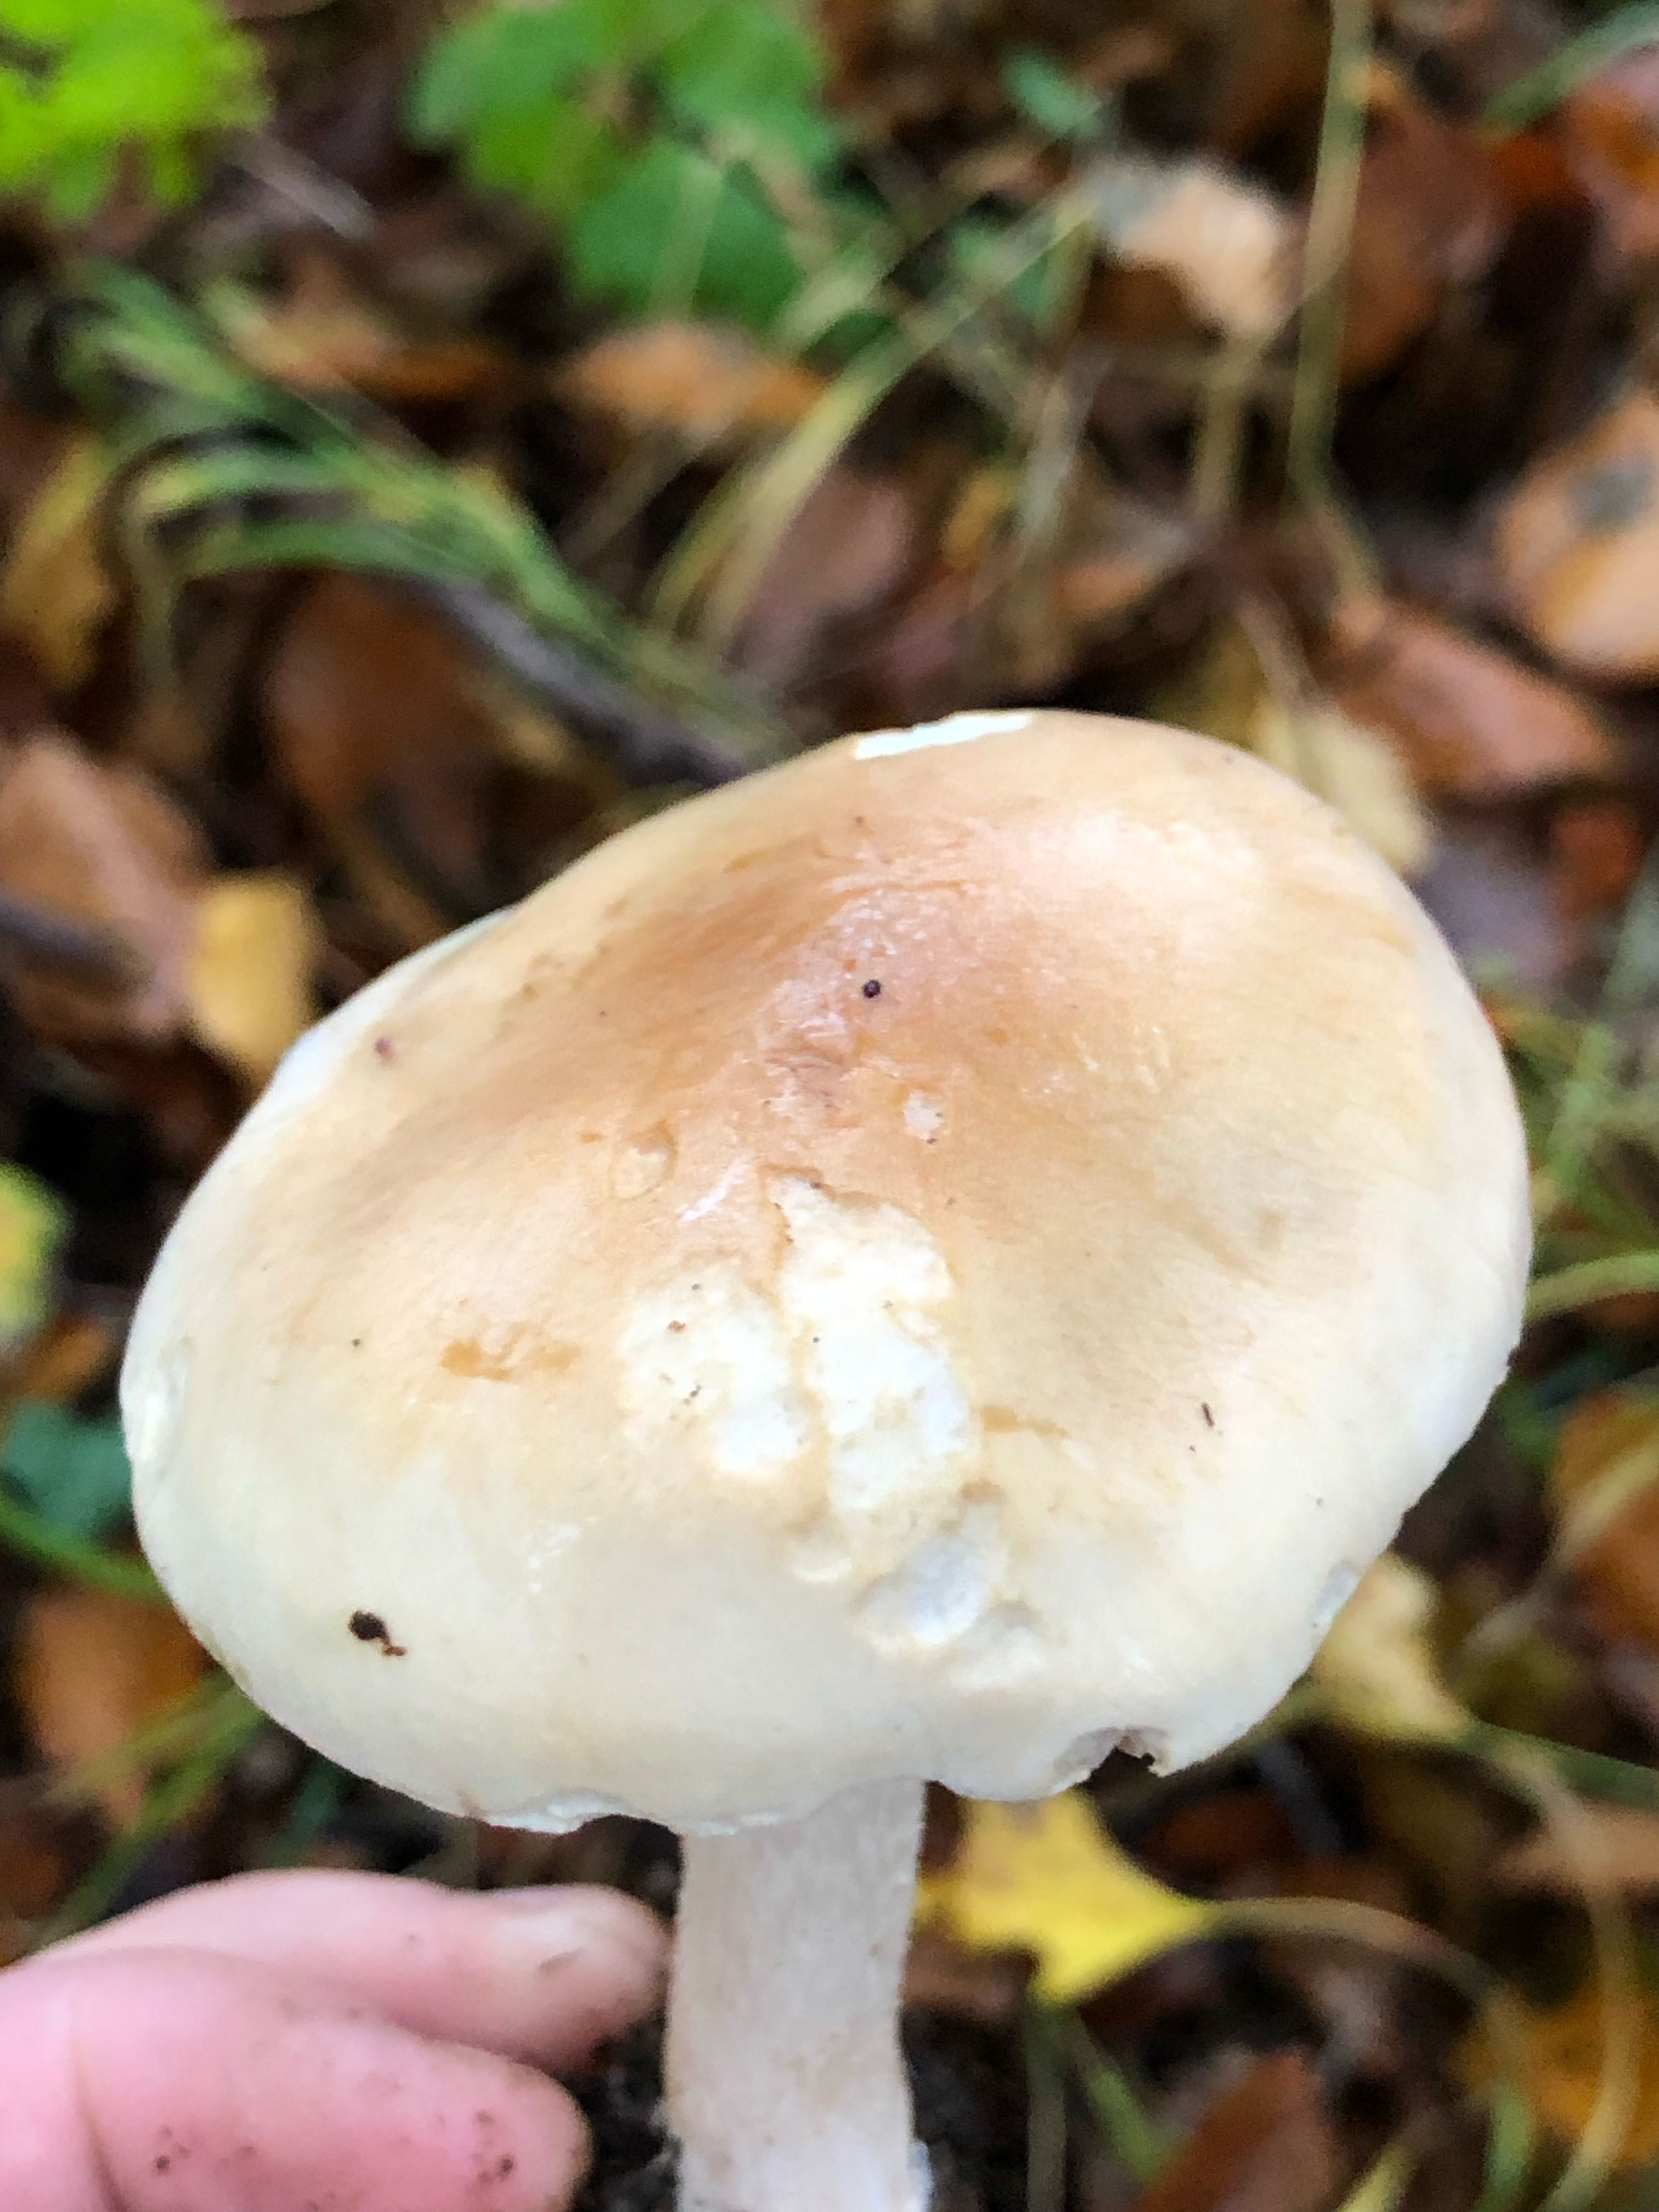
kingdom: Fungi
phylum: Basidiomycota
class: Agaricomycetes
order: Agaricales
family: Hymenogastraceae
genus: Hebeloma
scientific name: Hebeloma sinapizans
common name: ræddike-tåreblad
